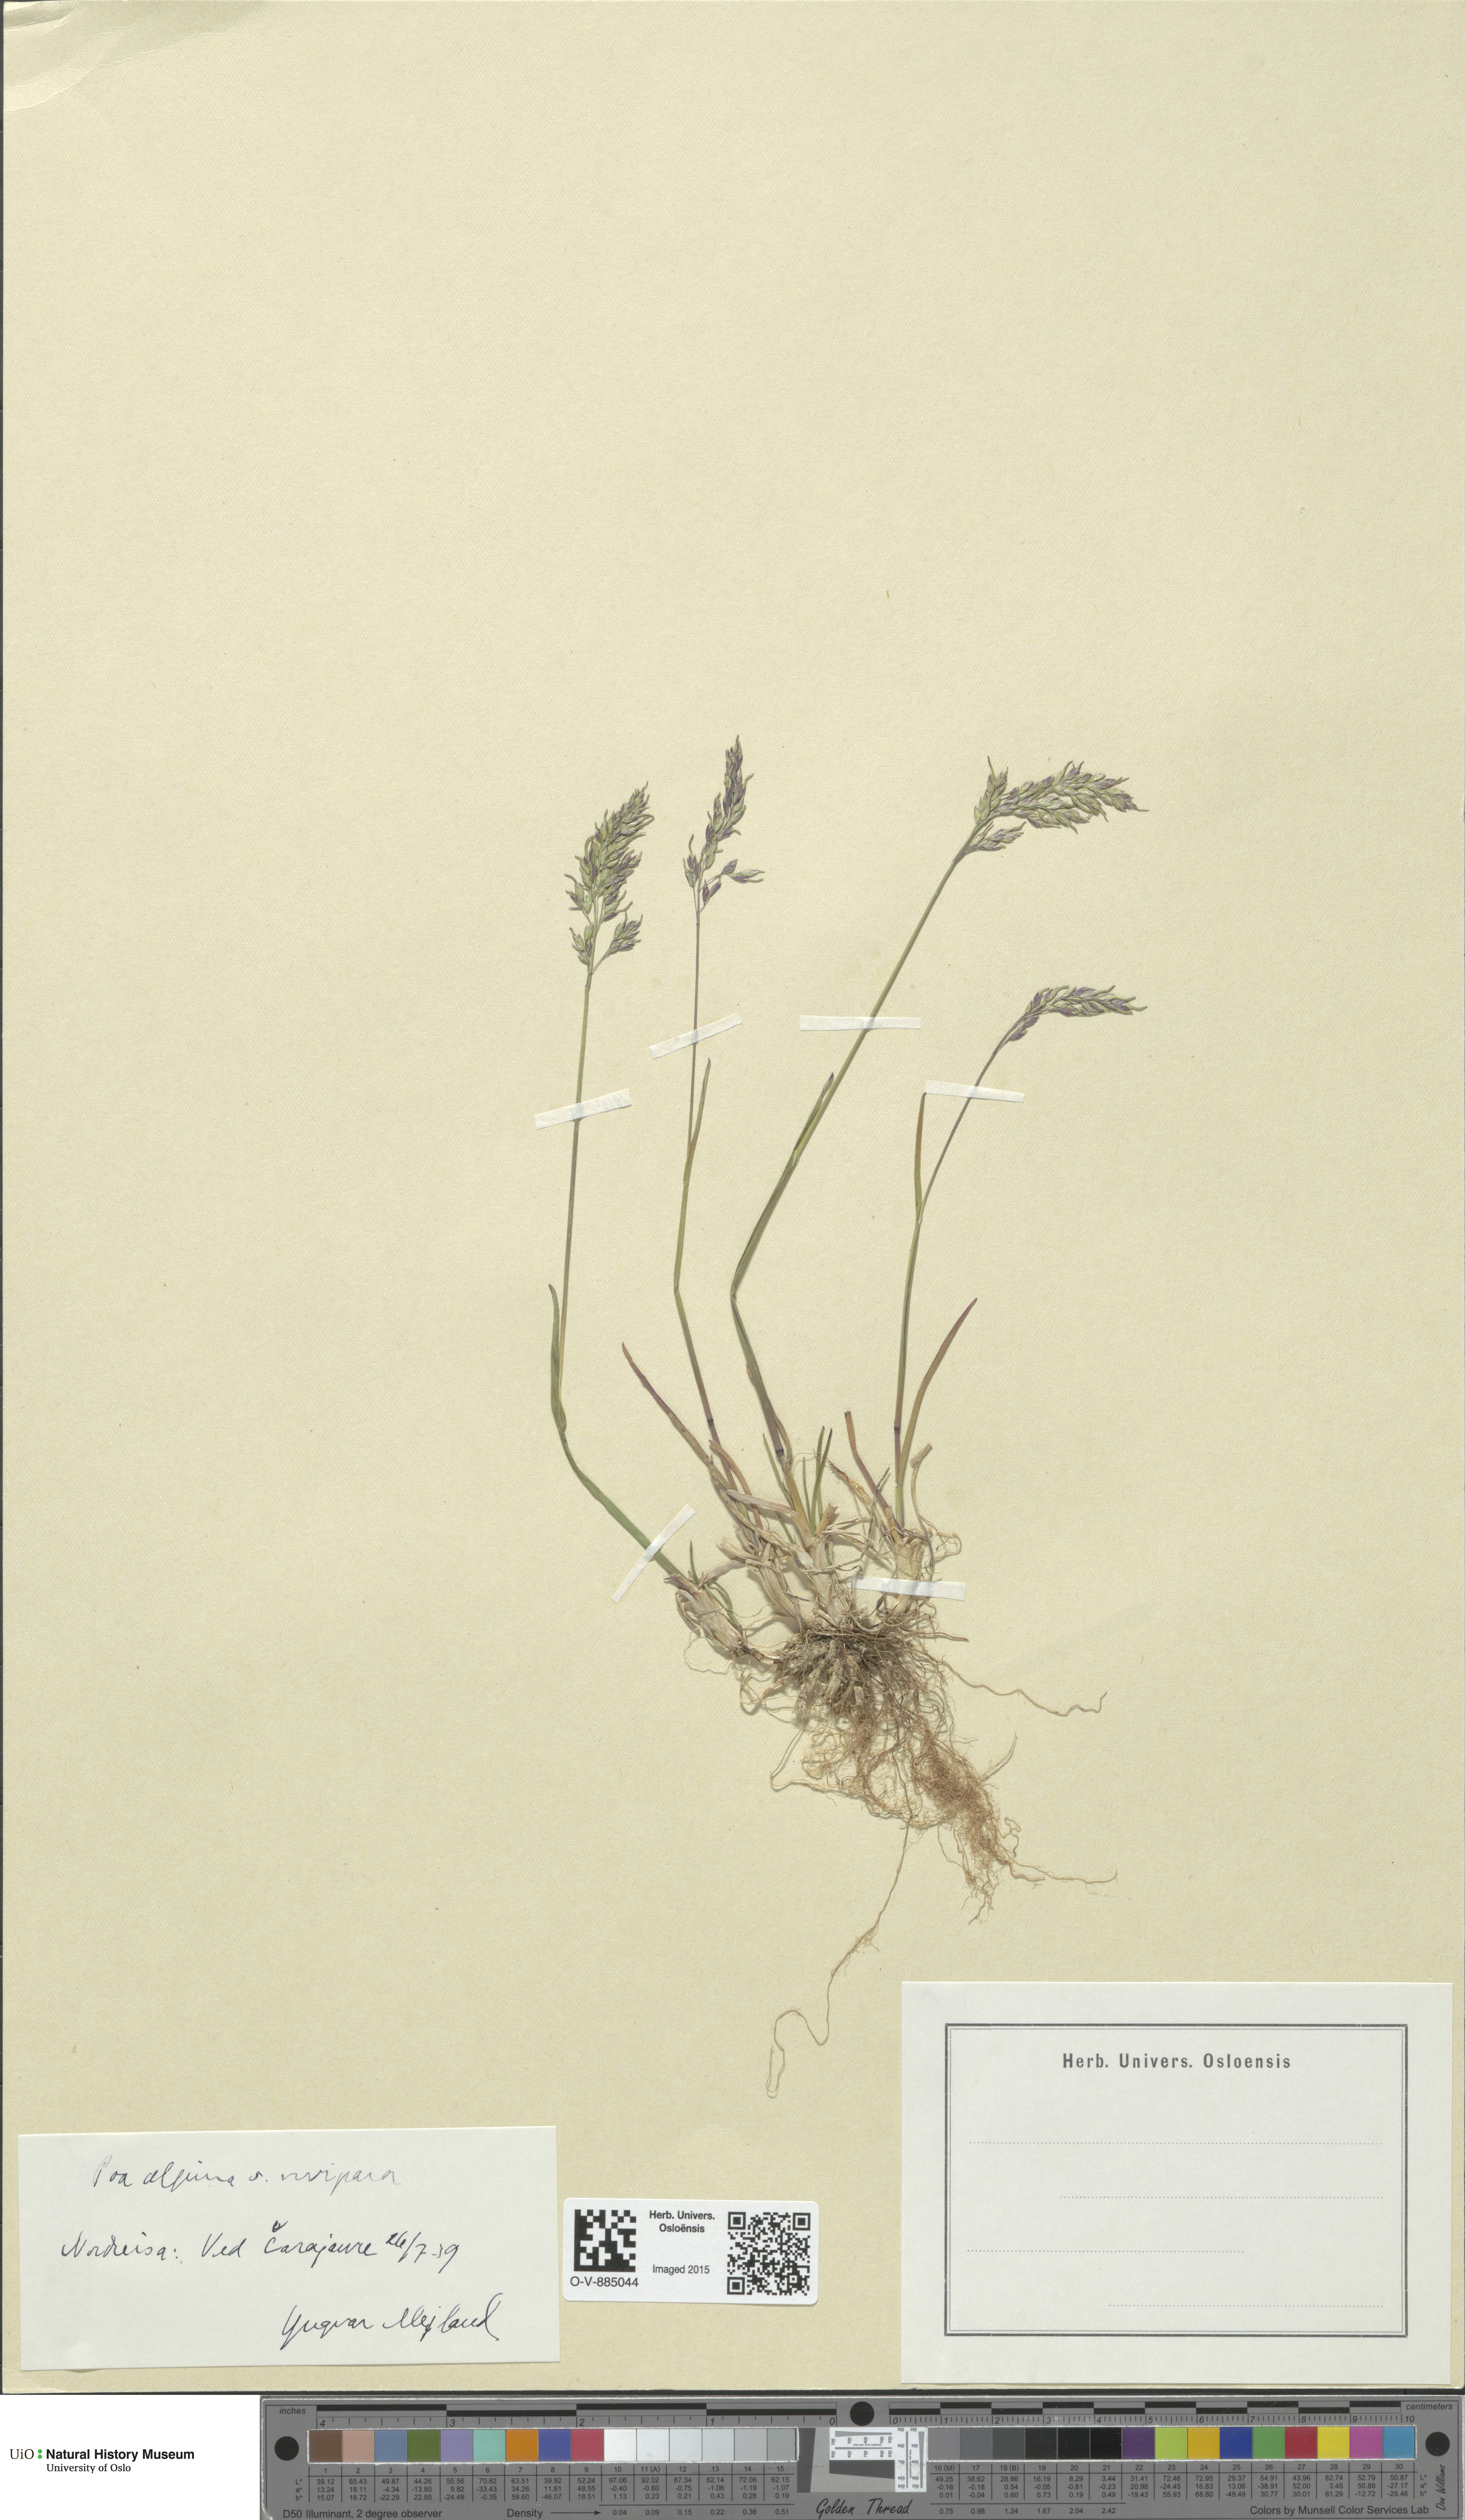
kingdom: Plantae
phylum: Tracheophyta
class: Liliopsida
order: Poales
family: Poaceae
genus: Poa
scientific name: Poa alpina
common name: Alpine bluegrass
